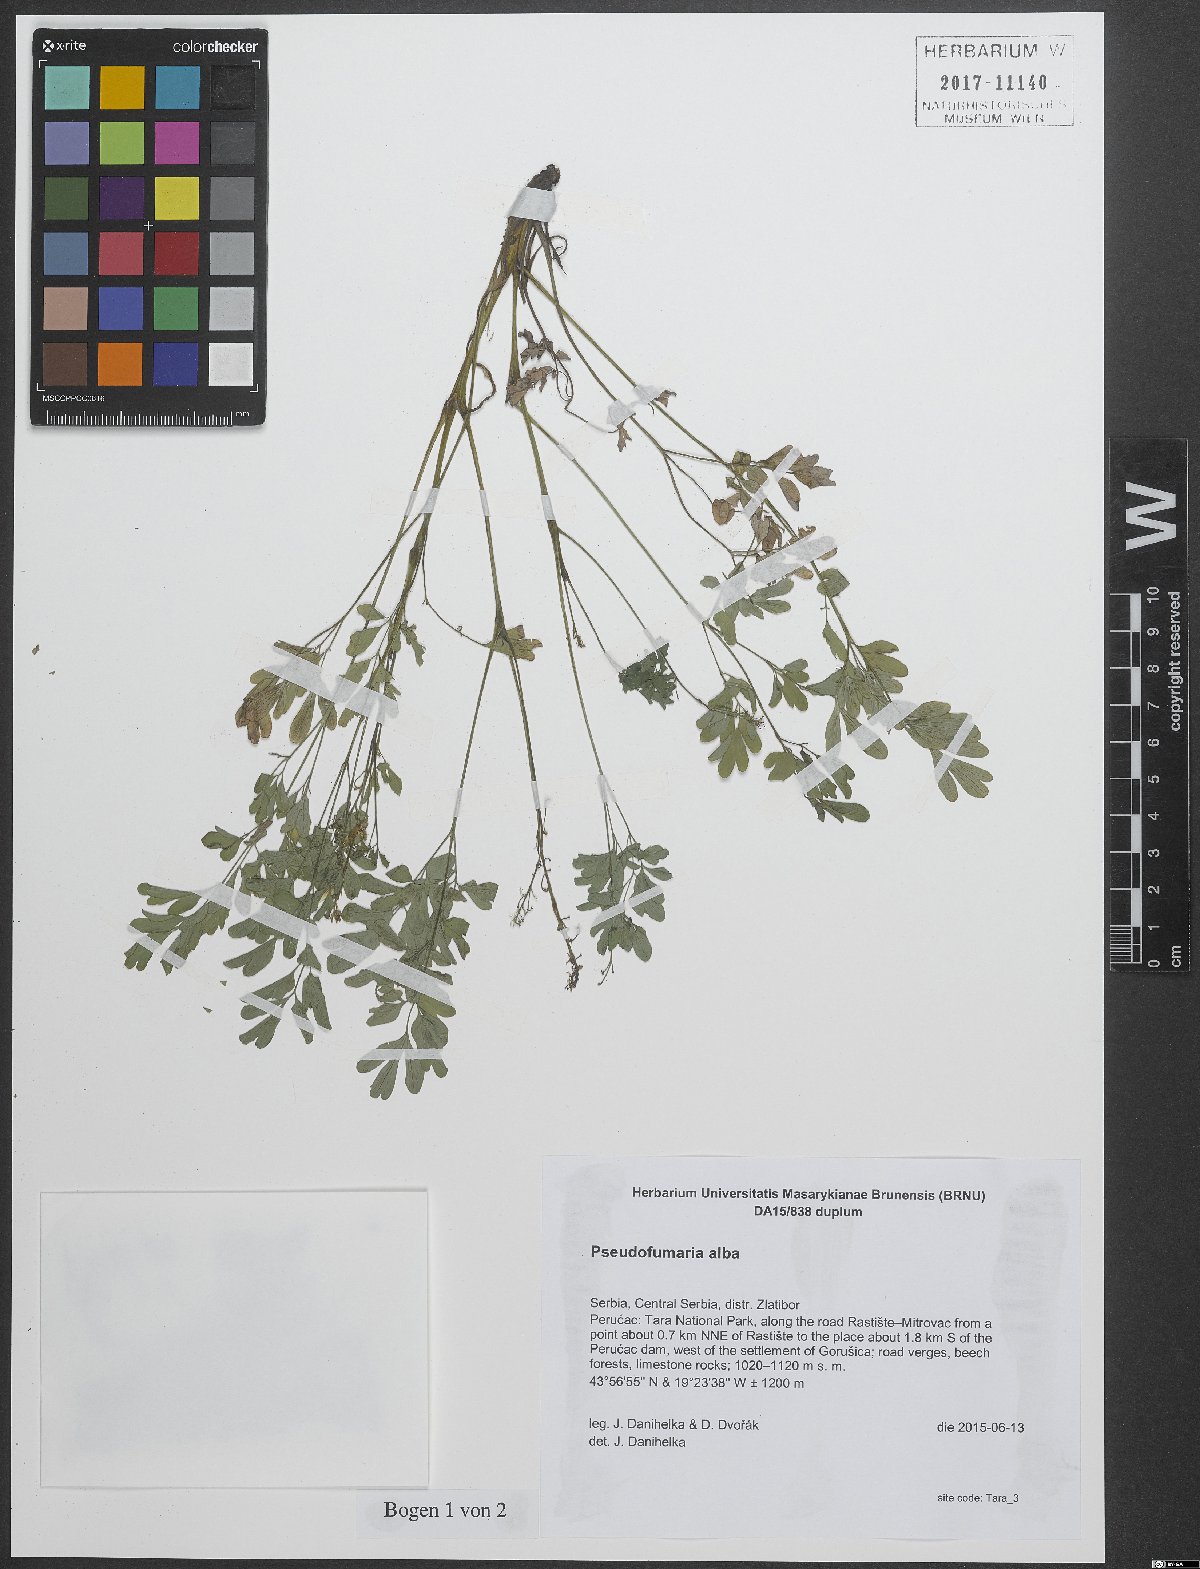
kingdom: Plantae
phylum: Tracheophyta
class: Magnoliopsida
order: Ranunculales
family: Papaveraceae
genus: Pseudofumaria
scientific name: Pseudofumaria alba
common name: Pale corydalis
